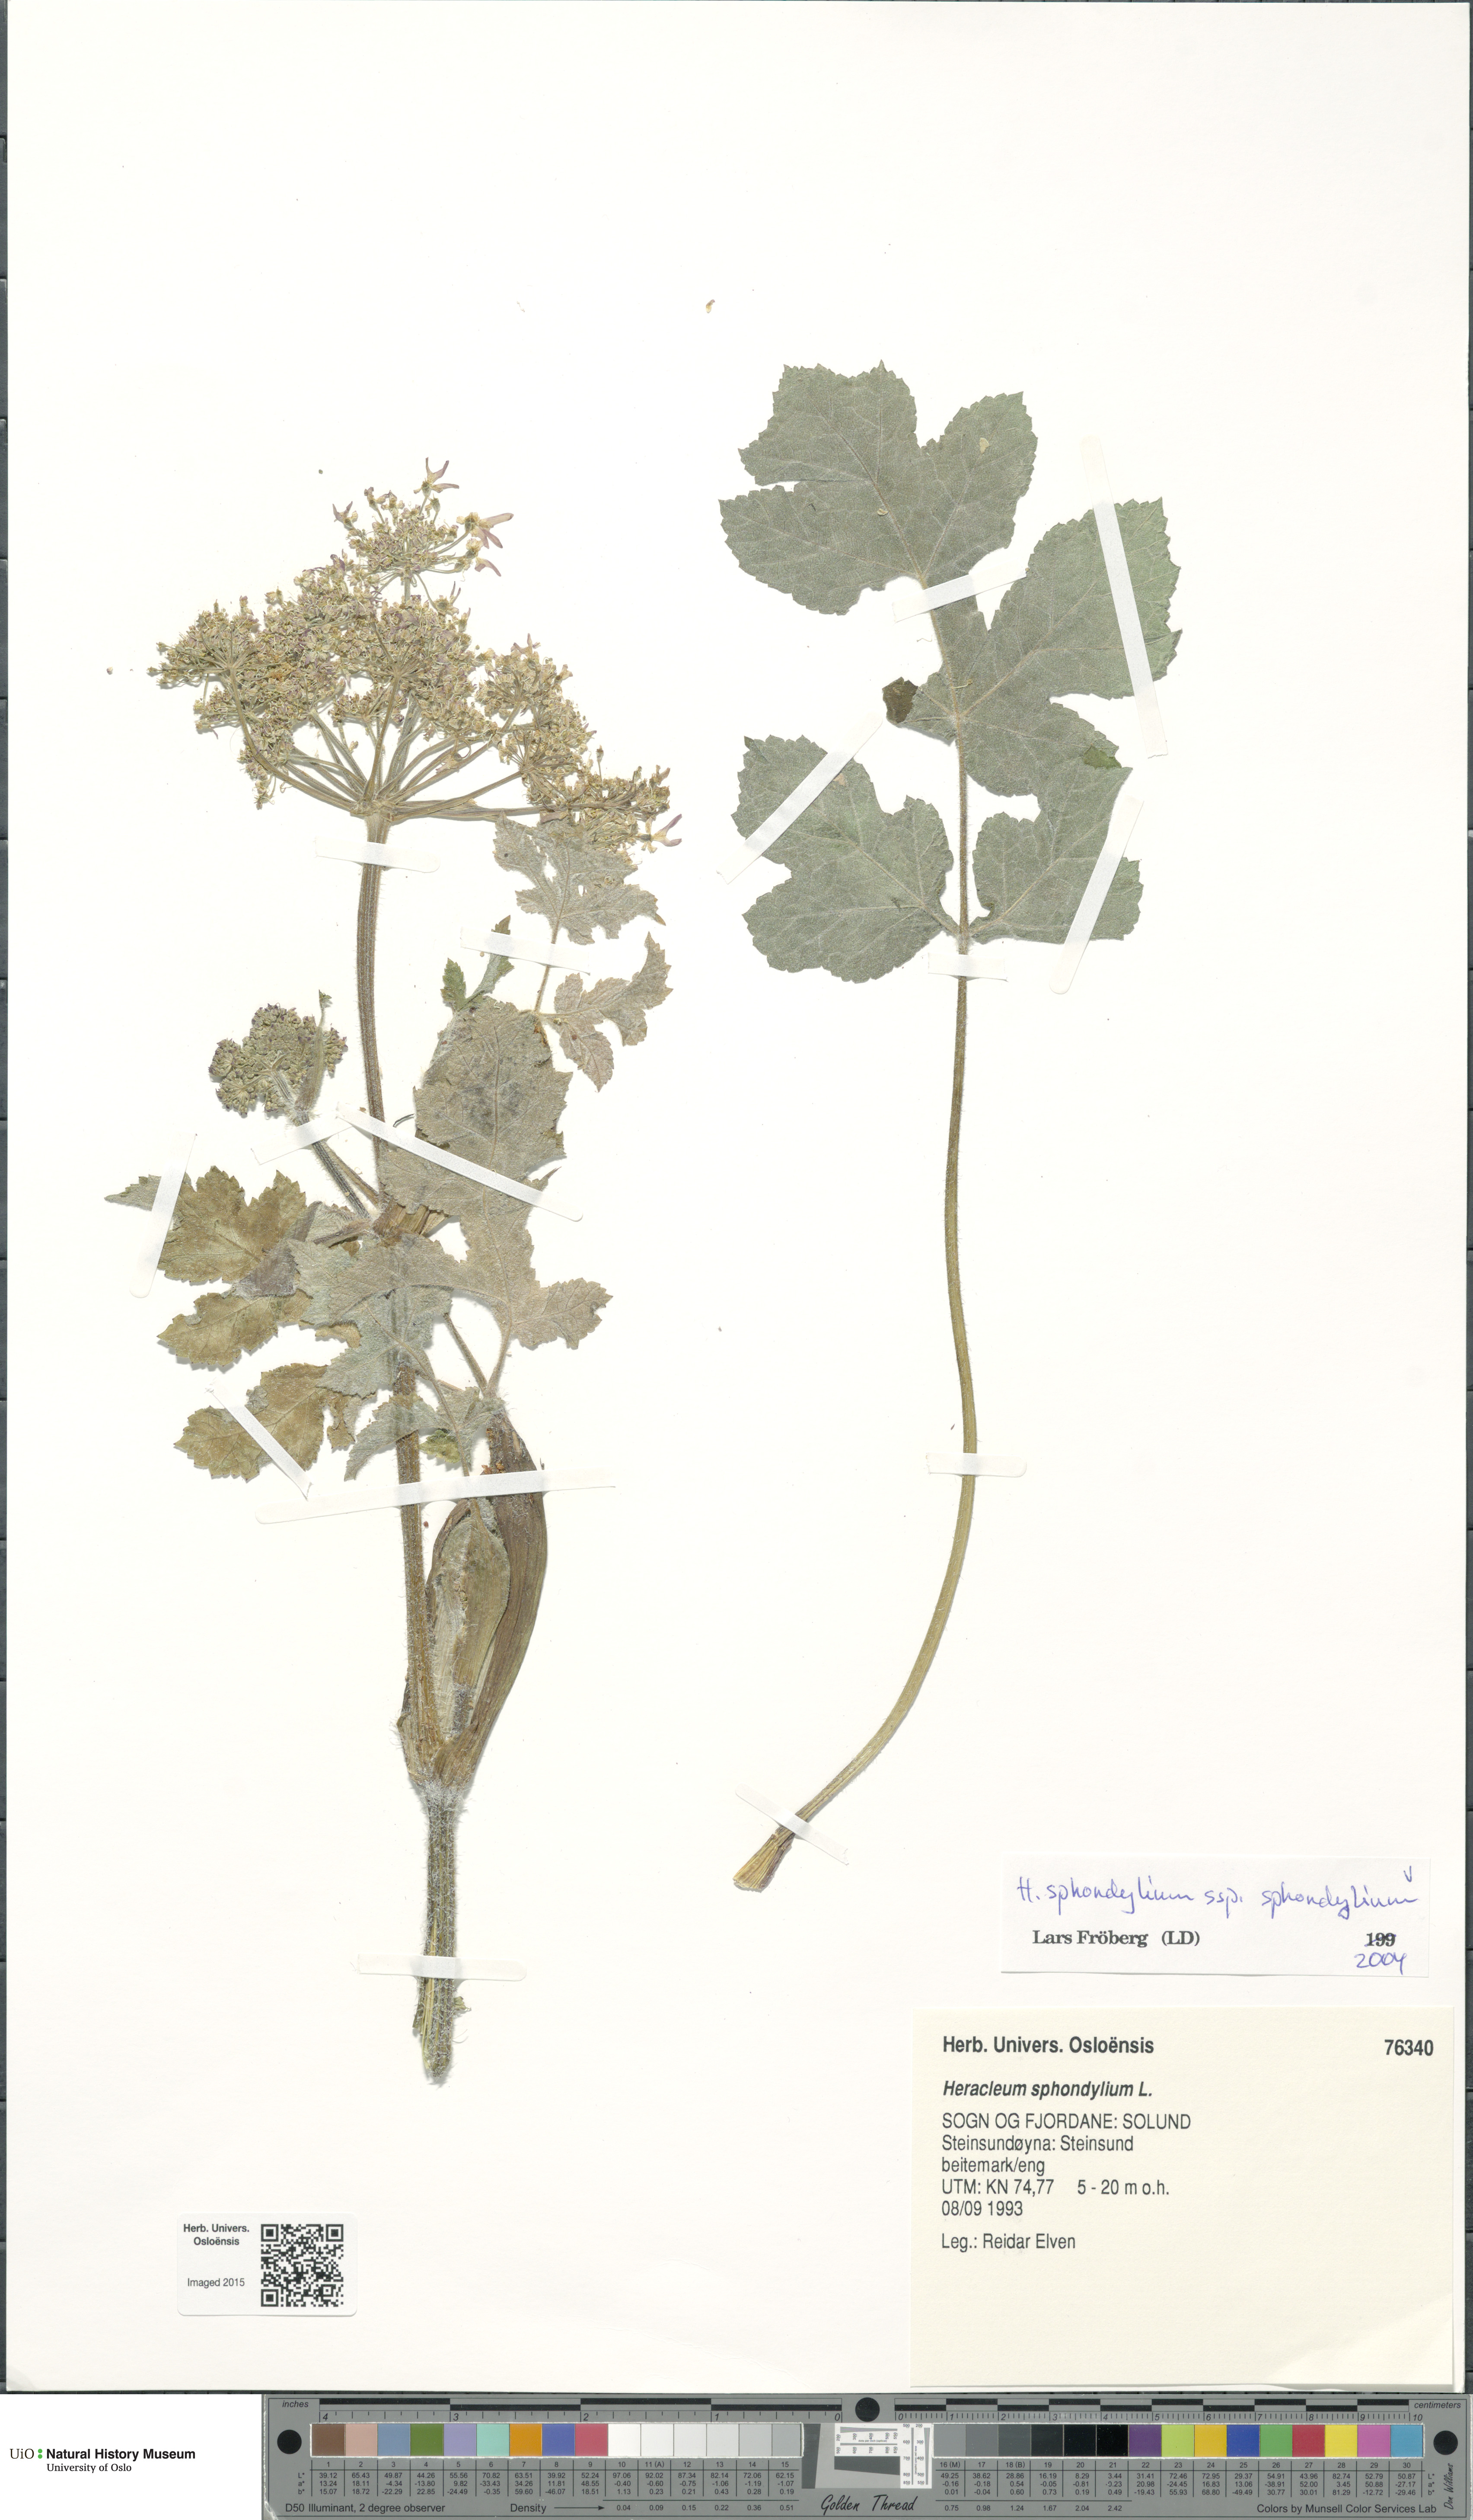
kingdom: Plantae
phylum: Tracheophyta
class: Magnoliopsida
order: Apiales
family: Apiaceae
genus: Heracleum
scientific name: Heracleum sphondylium
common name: Hogweed
